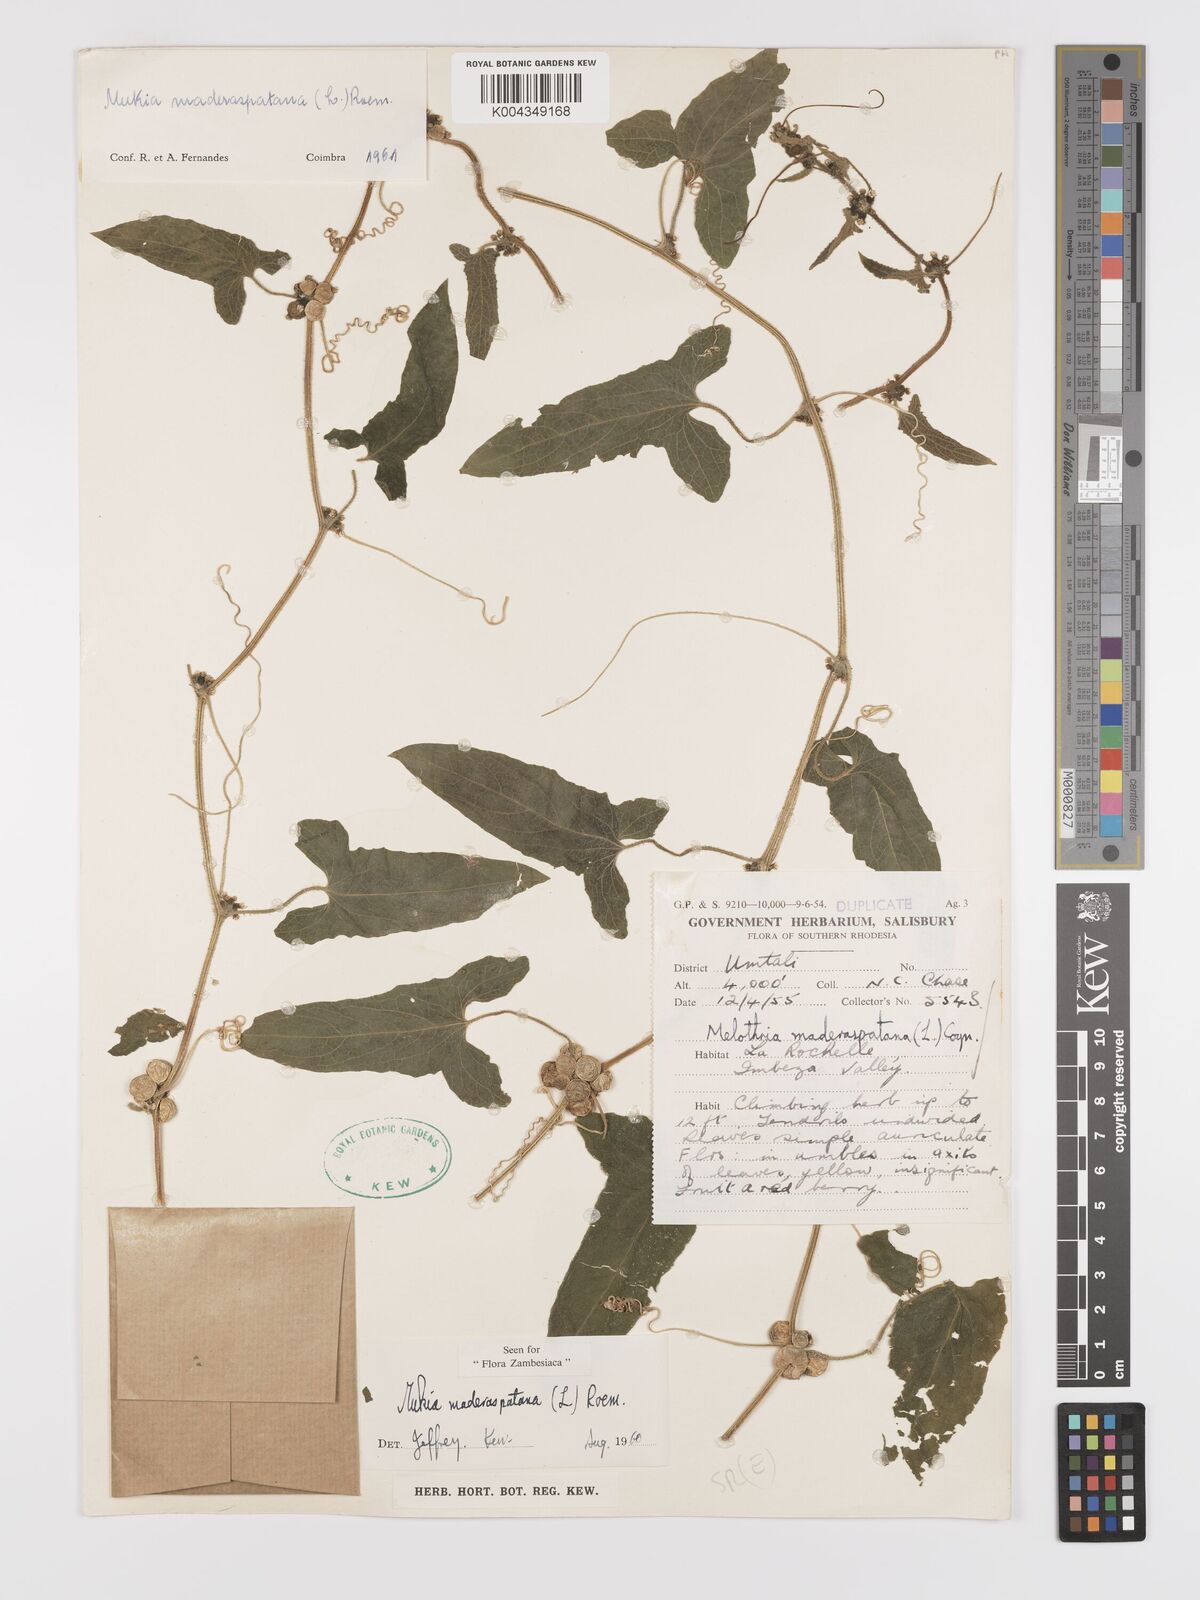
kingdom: Plantae
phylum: Tracheophyta
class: Magnoliopsida
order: Cucurbitales
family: Cucurbitaceae
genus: Cucumis
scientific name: Cucumis maderaspatanus
